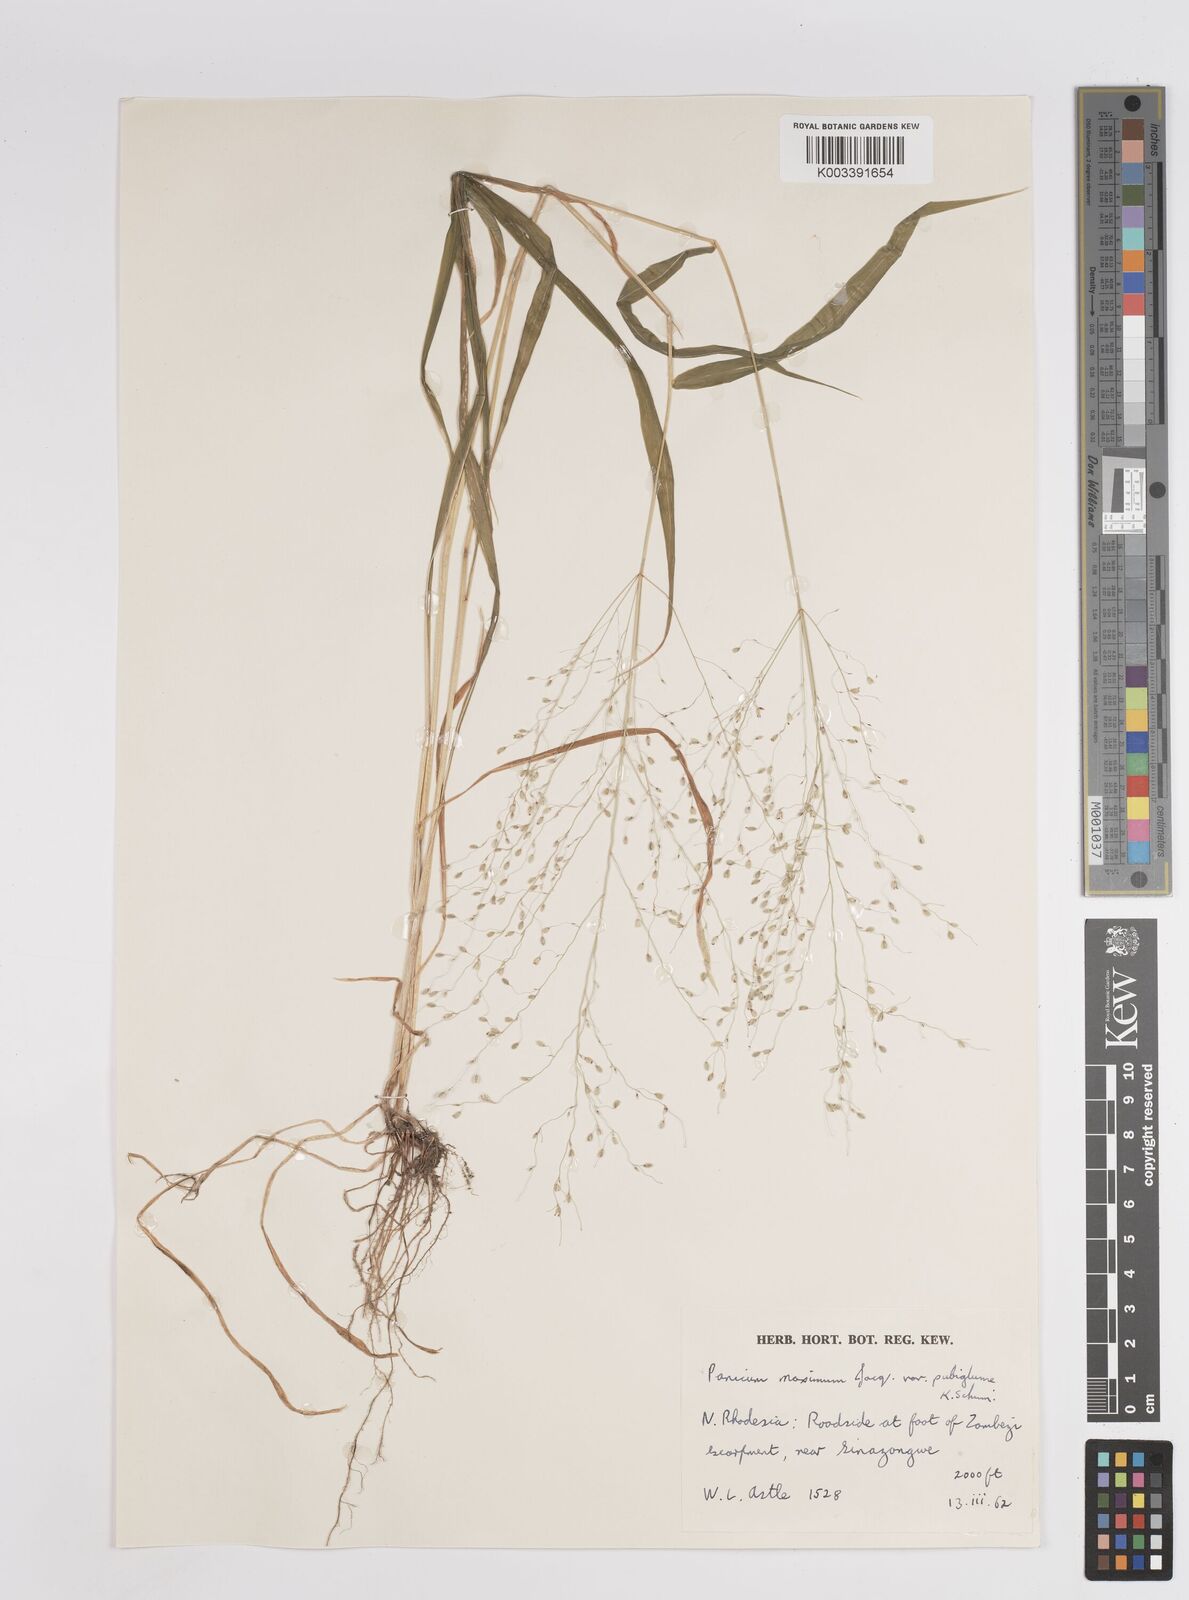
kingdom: Plantae
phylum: Tracheophyta
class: Liliopsida
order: Poales
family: Poaceae
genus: Megathyrsus
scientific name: Megathyrsus maximus
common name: Guineagrass
